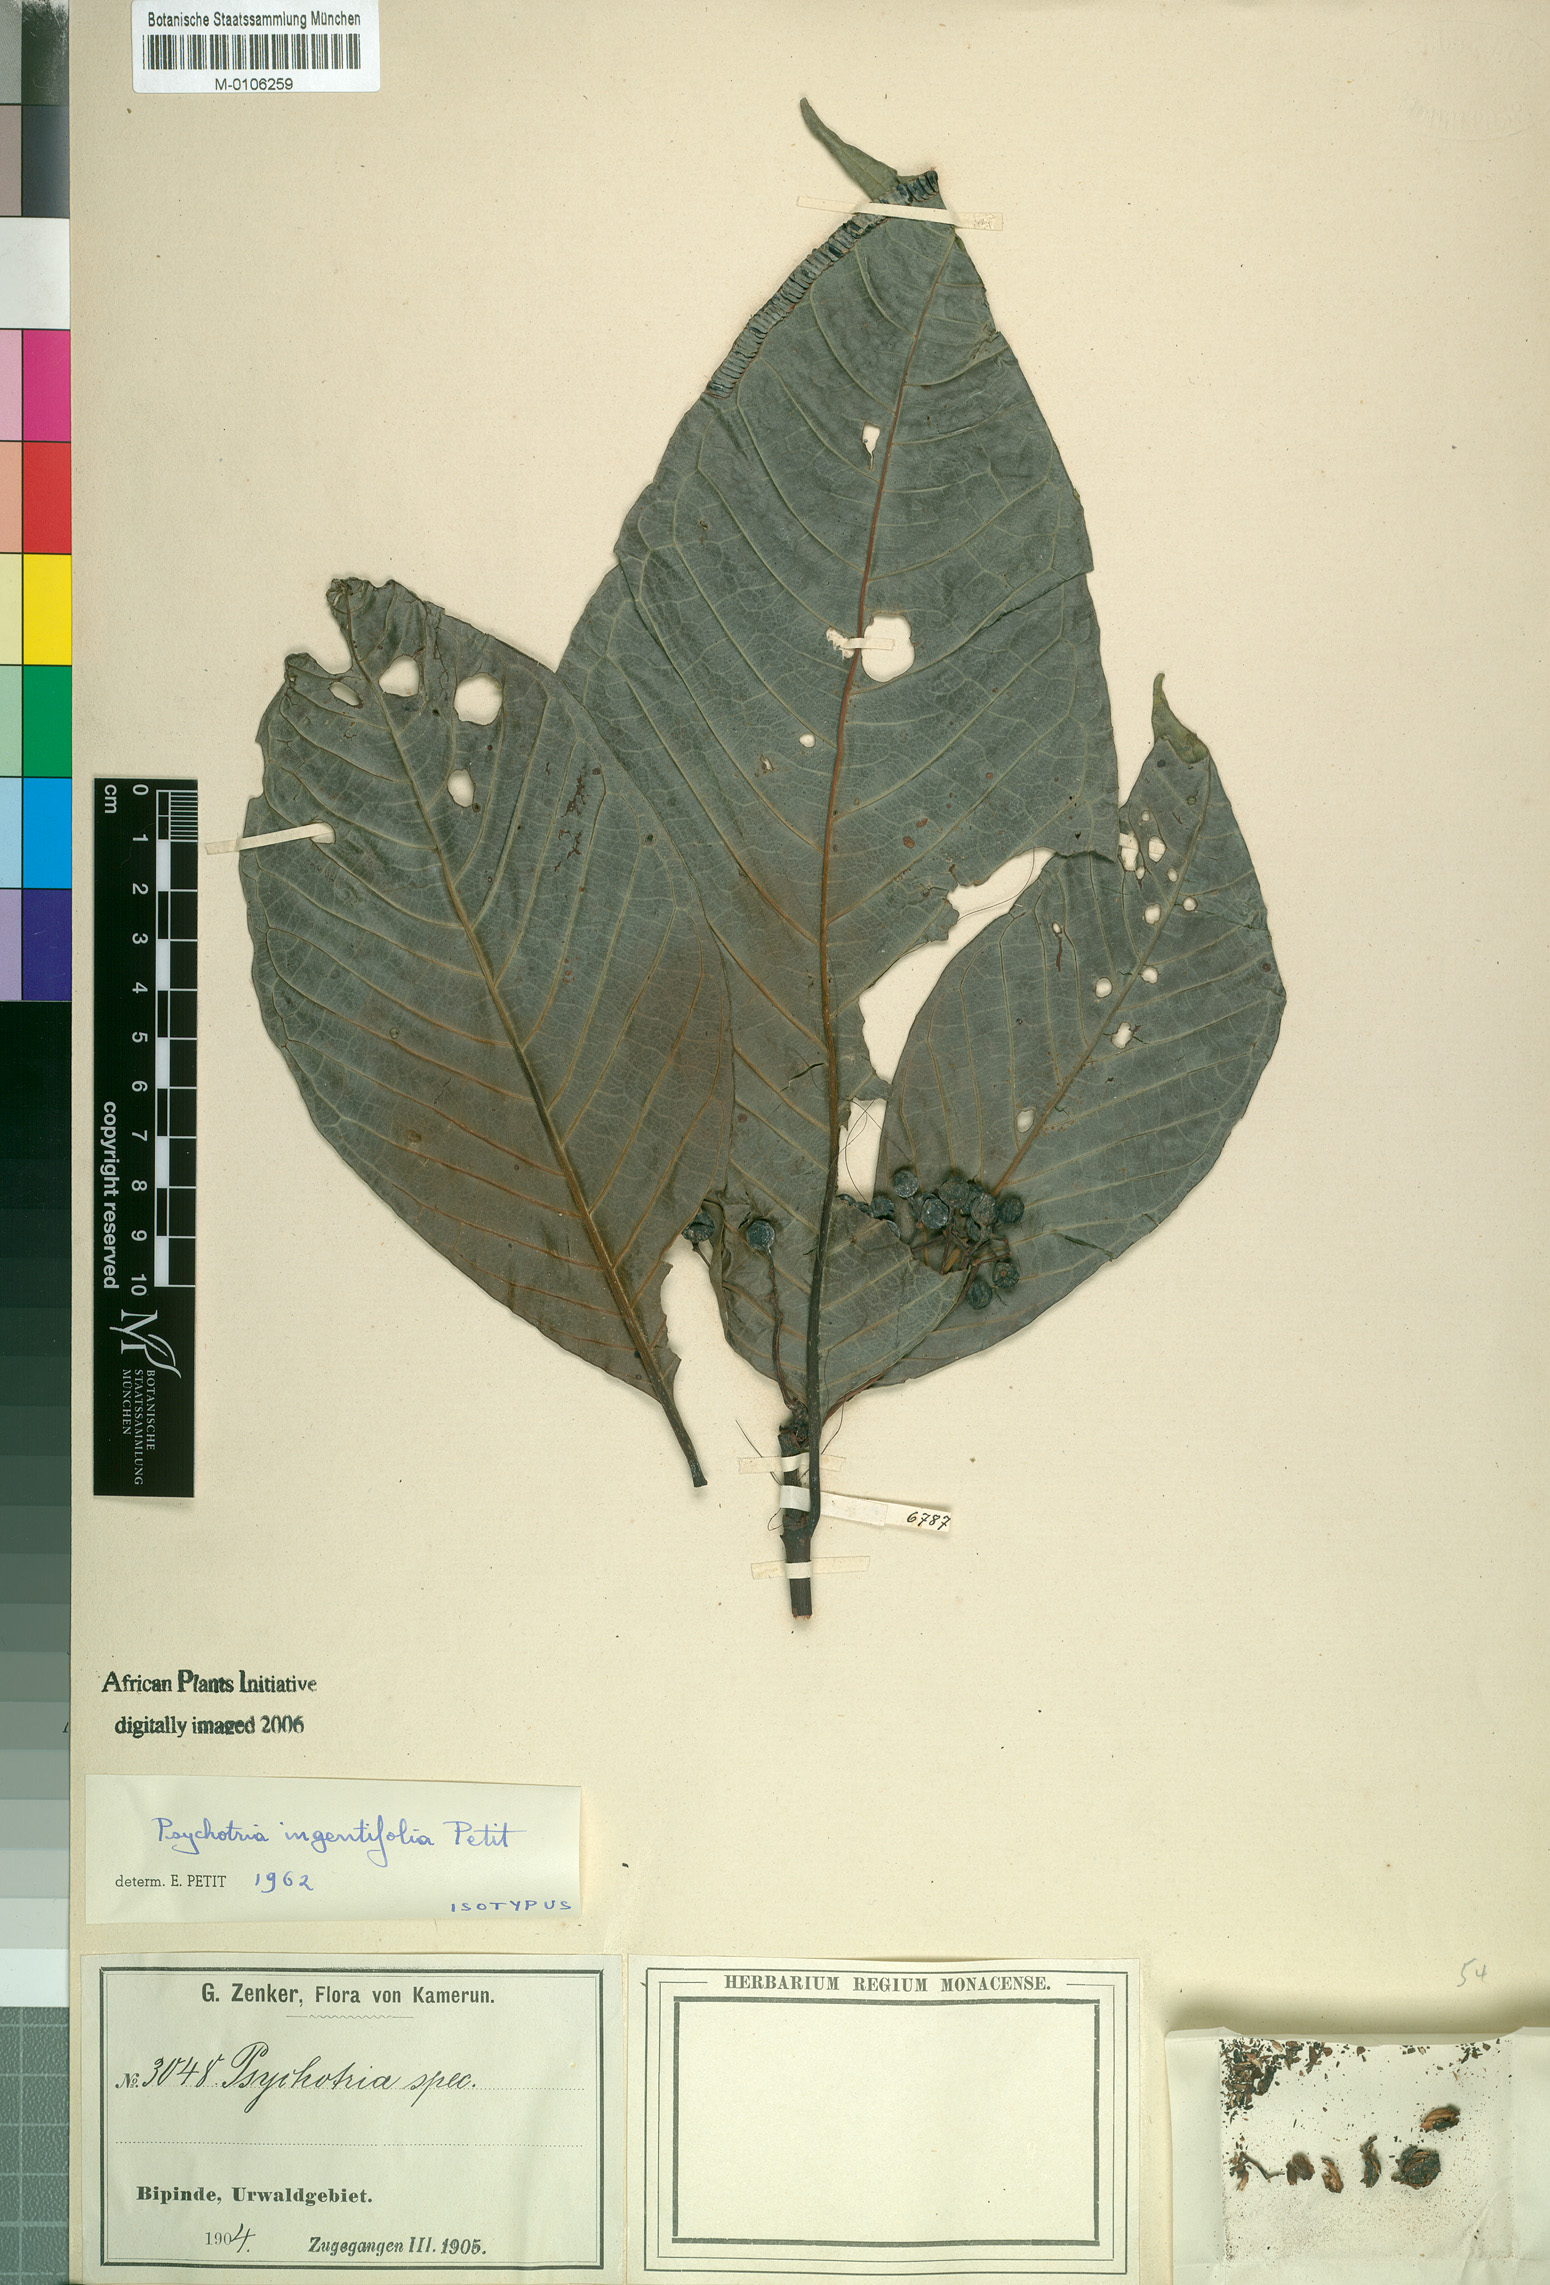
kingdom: Plantae
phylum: Tracheophyta
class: Magnoliopsida
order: Gentianales
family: Rubiaceae
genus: Psychotria
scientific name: Psychotria ingentifolia
